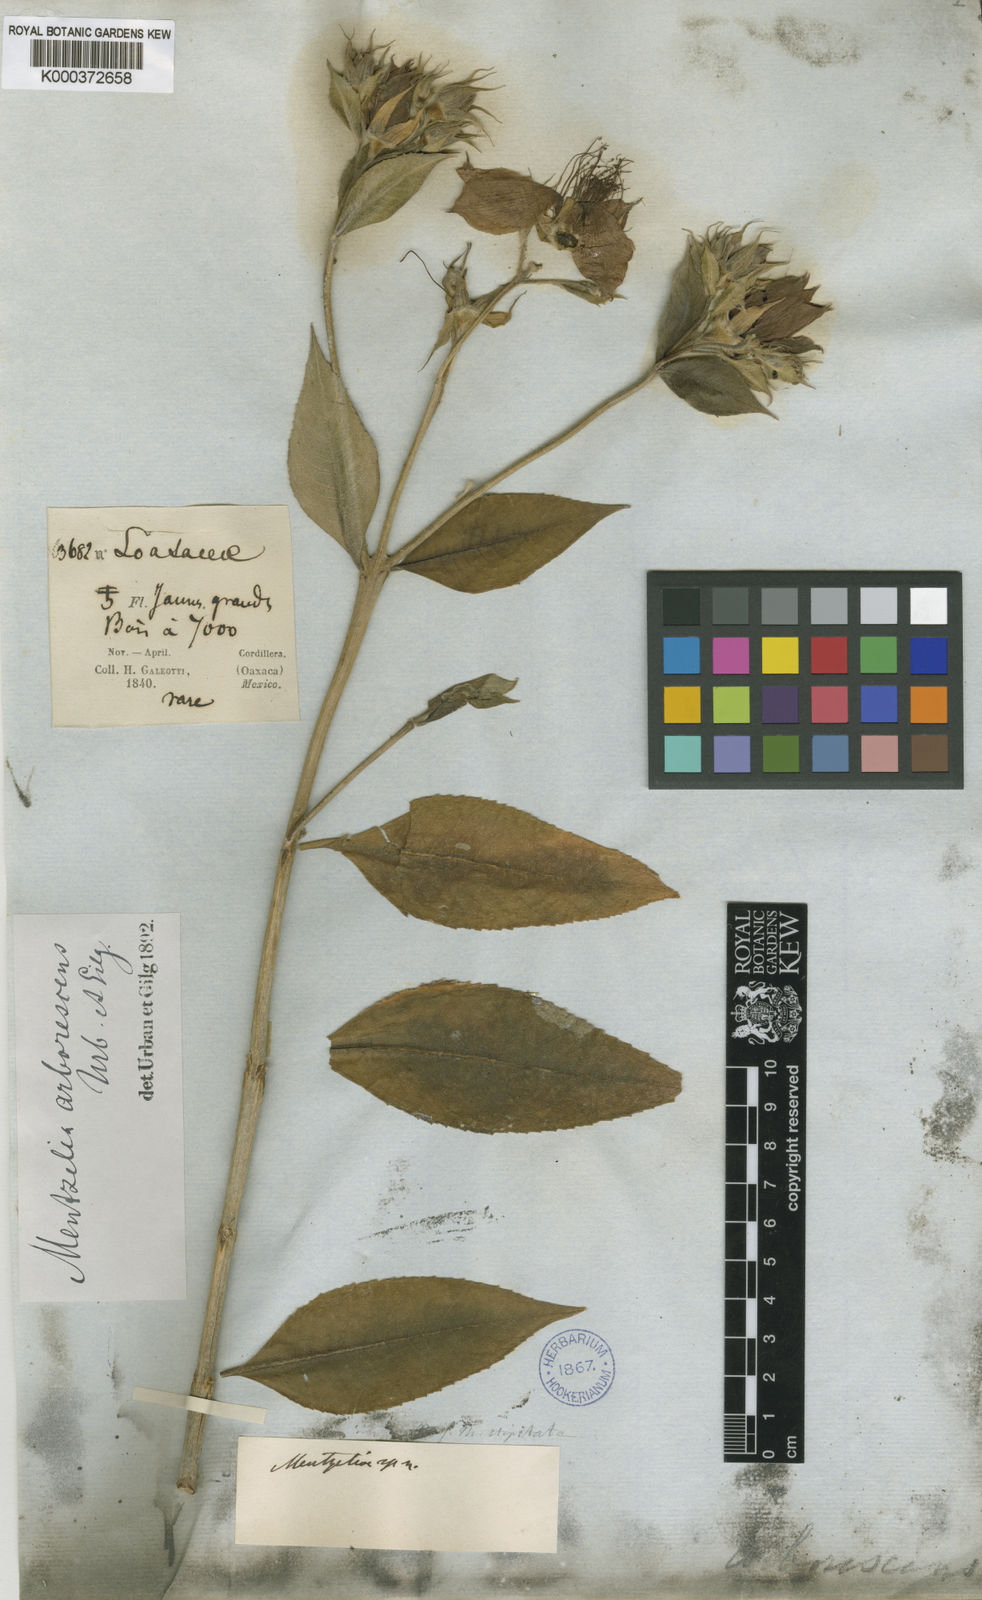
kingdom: Plantae
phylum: Tracheophyta
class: Magnoliopsida
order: Cornales
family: Loasaceae
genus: Mentzelia
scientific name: Mentzelia arborescens
